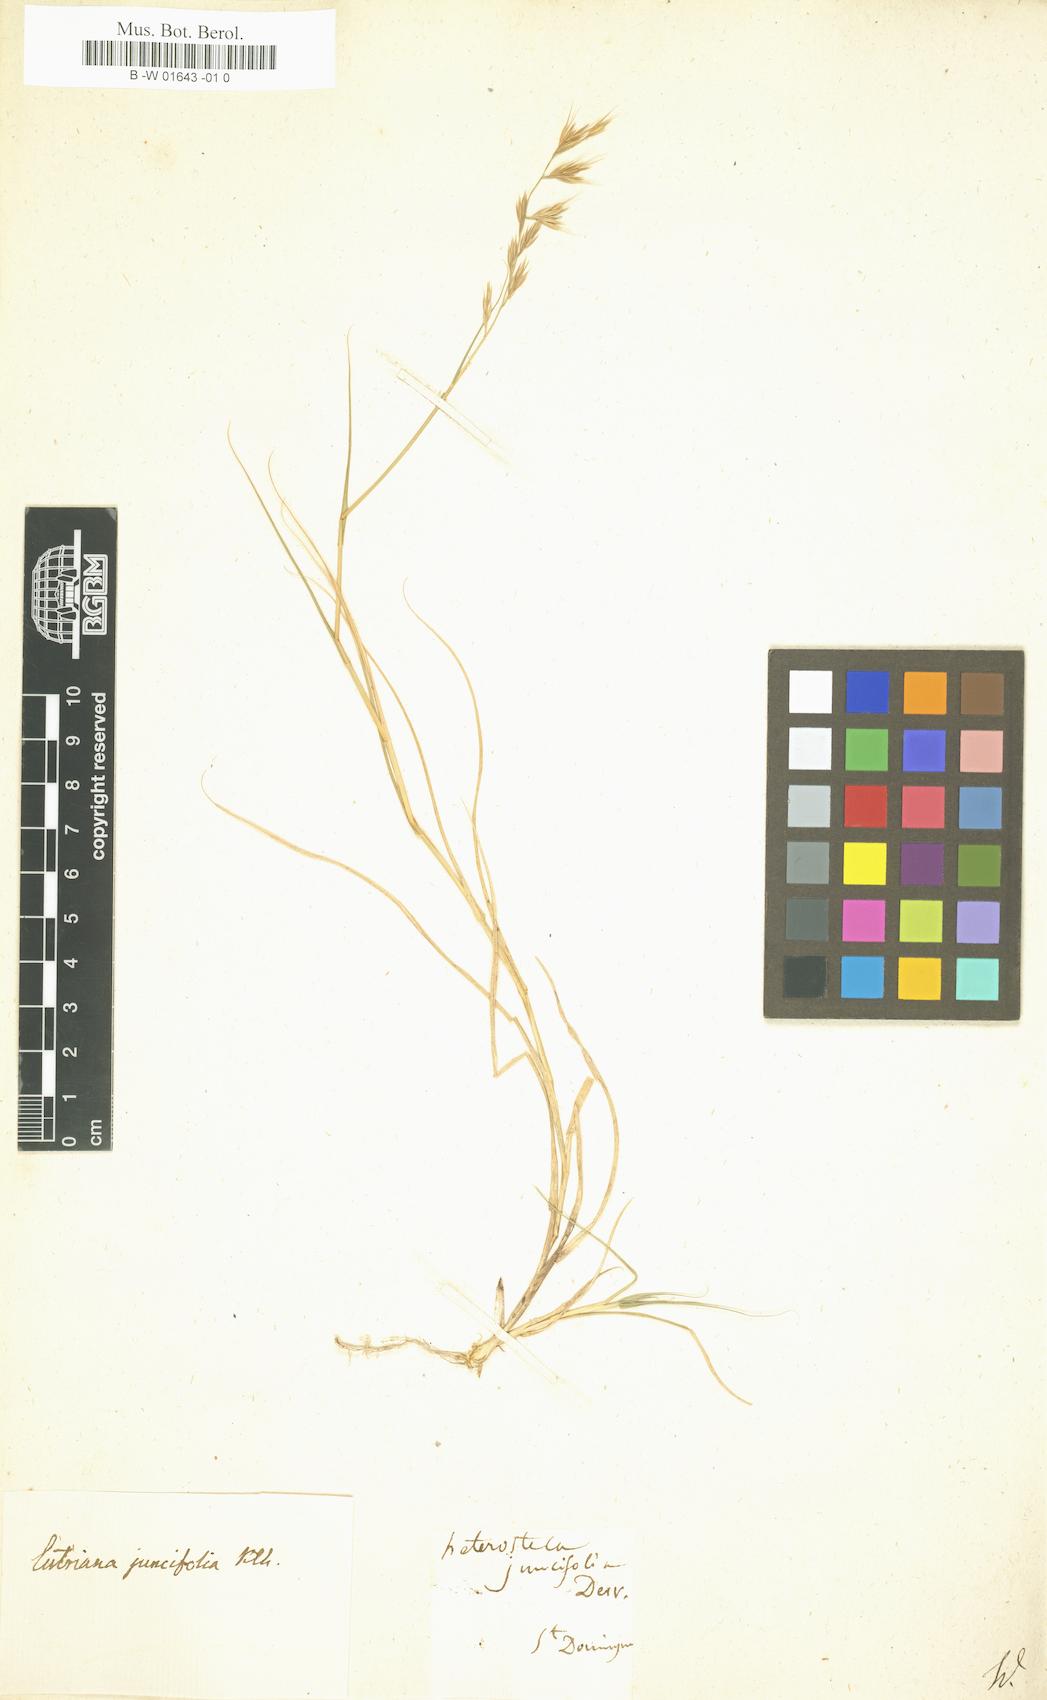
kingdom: Plantae
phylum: Tracheophyta
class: Liliopsida
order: Poales
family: Poaceae
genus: Heterostega
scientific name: Heterostega
